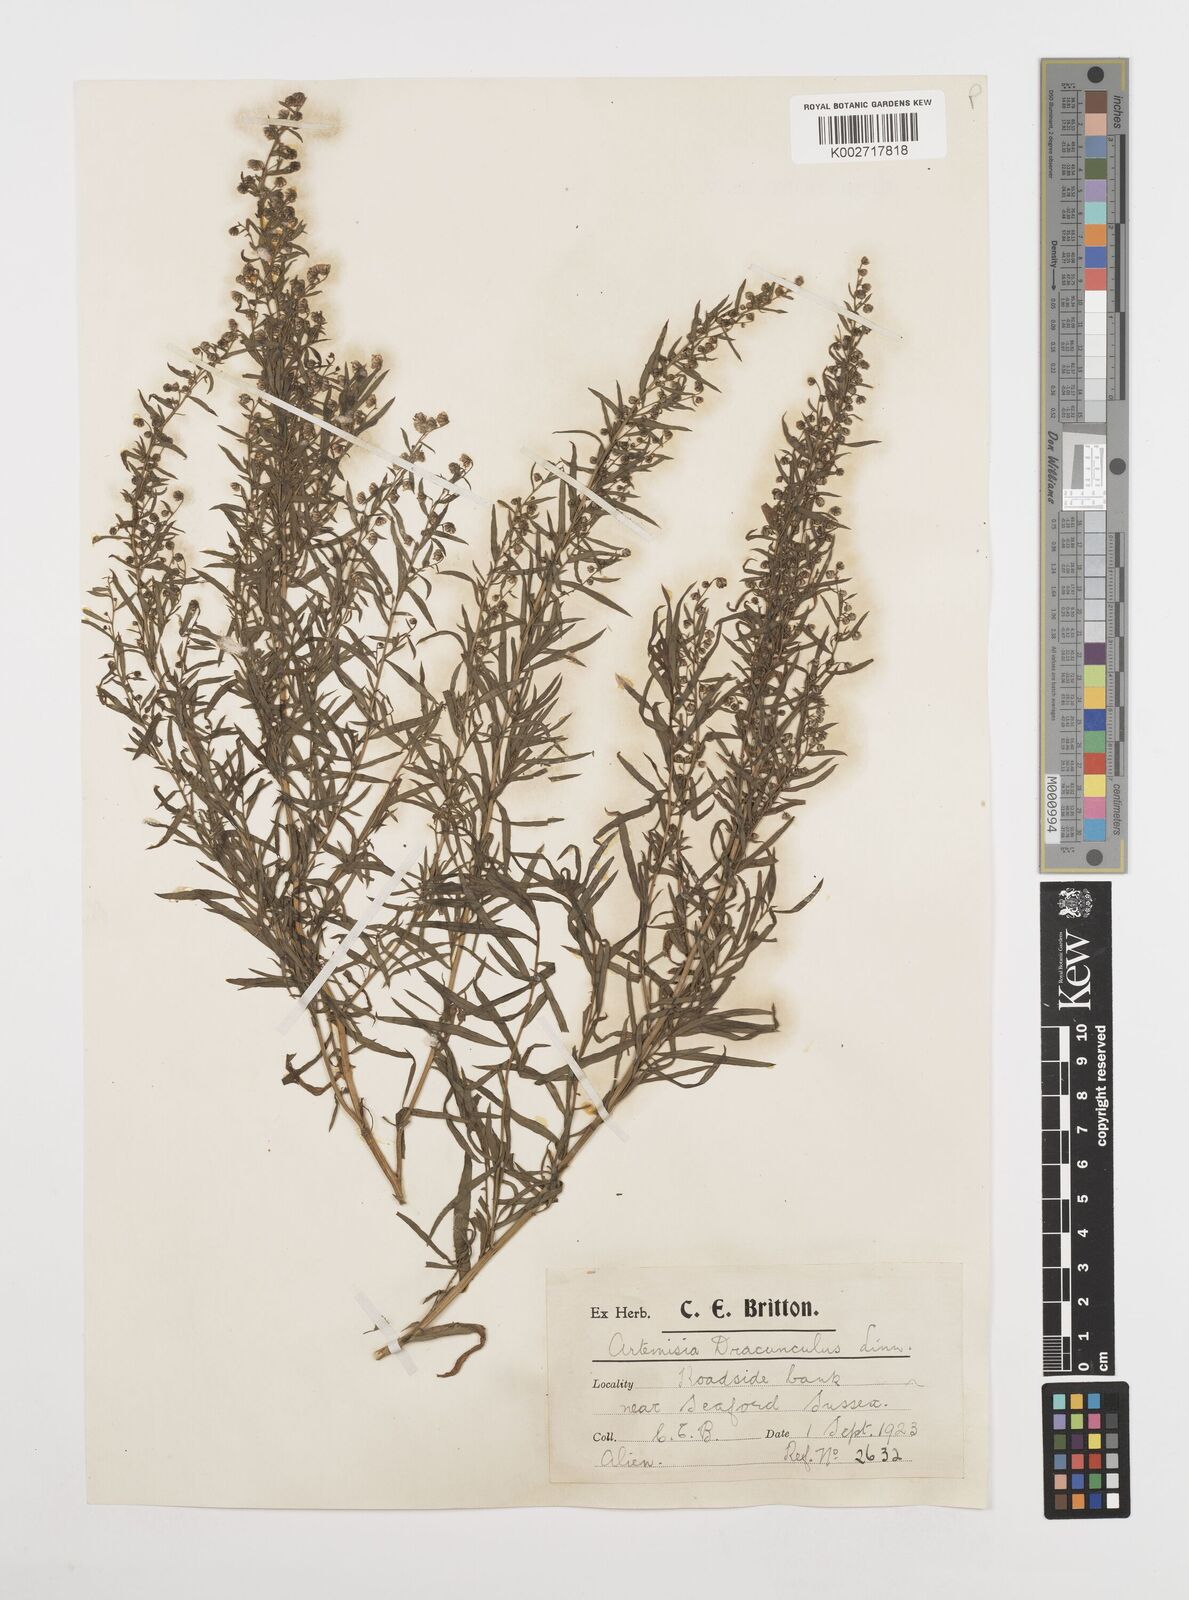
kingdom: Plantae
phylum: Tracheophyta
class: Magnoliopsida
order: Asterales
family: Asteraceae
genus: Artemisia
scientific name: Artemisia dracunculus
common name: Tarragon
